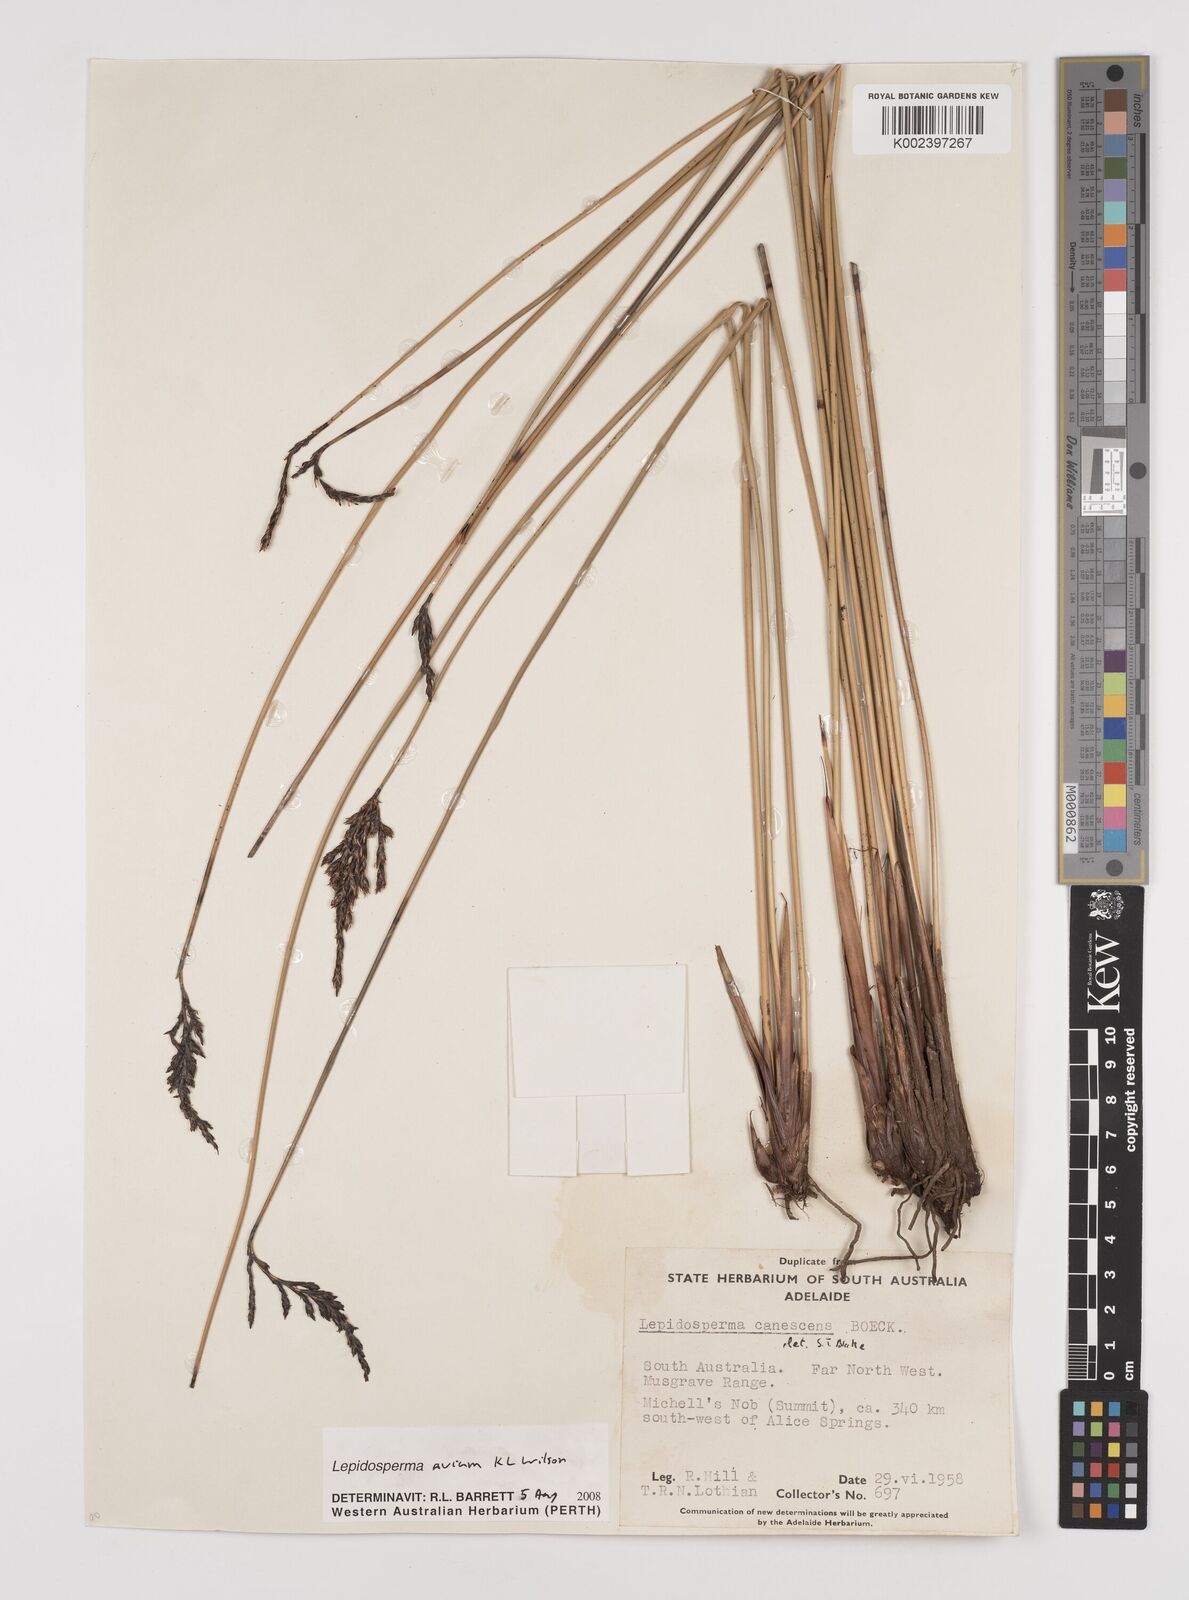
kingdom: Plantae
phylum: Tracheophyta
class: Liliopsida
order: Poales
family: Cyperaceae
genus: Lepidosperma
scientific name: Lepidosperma avium
